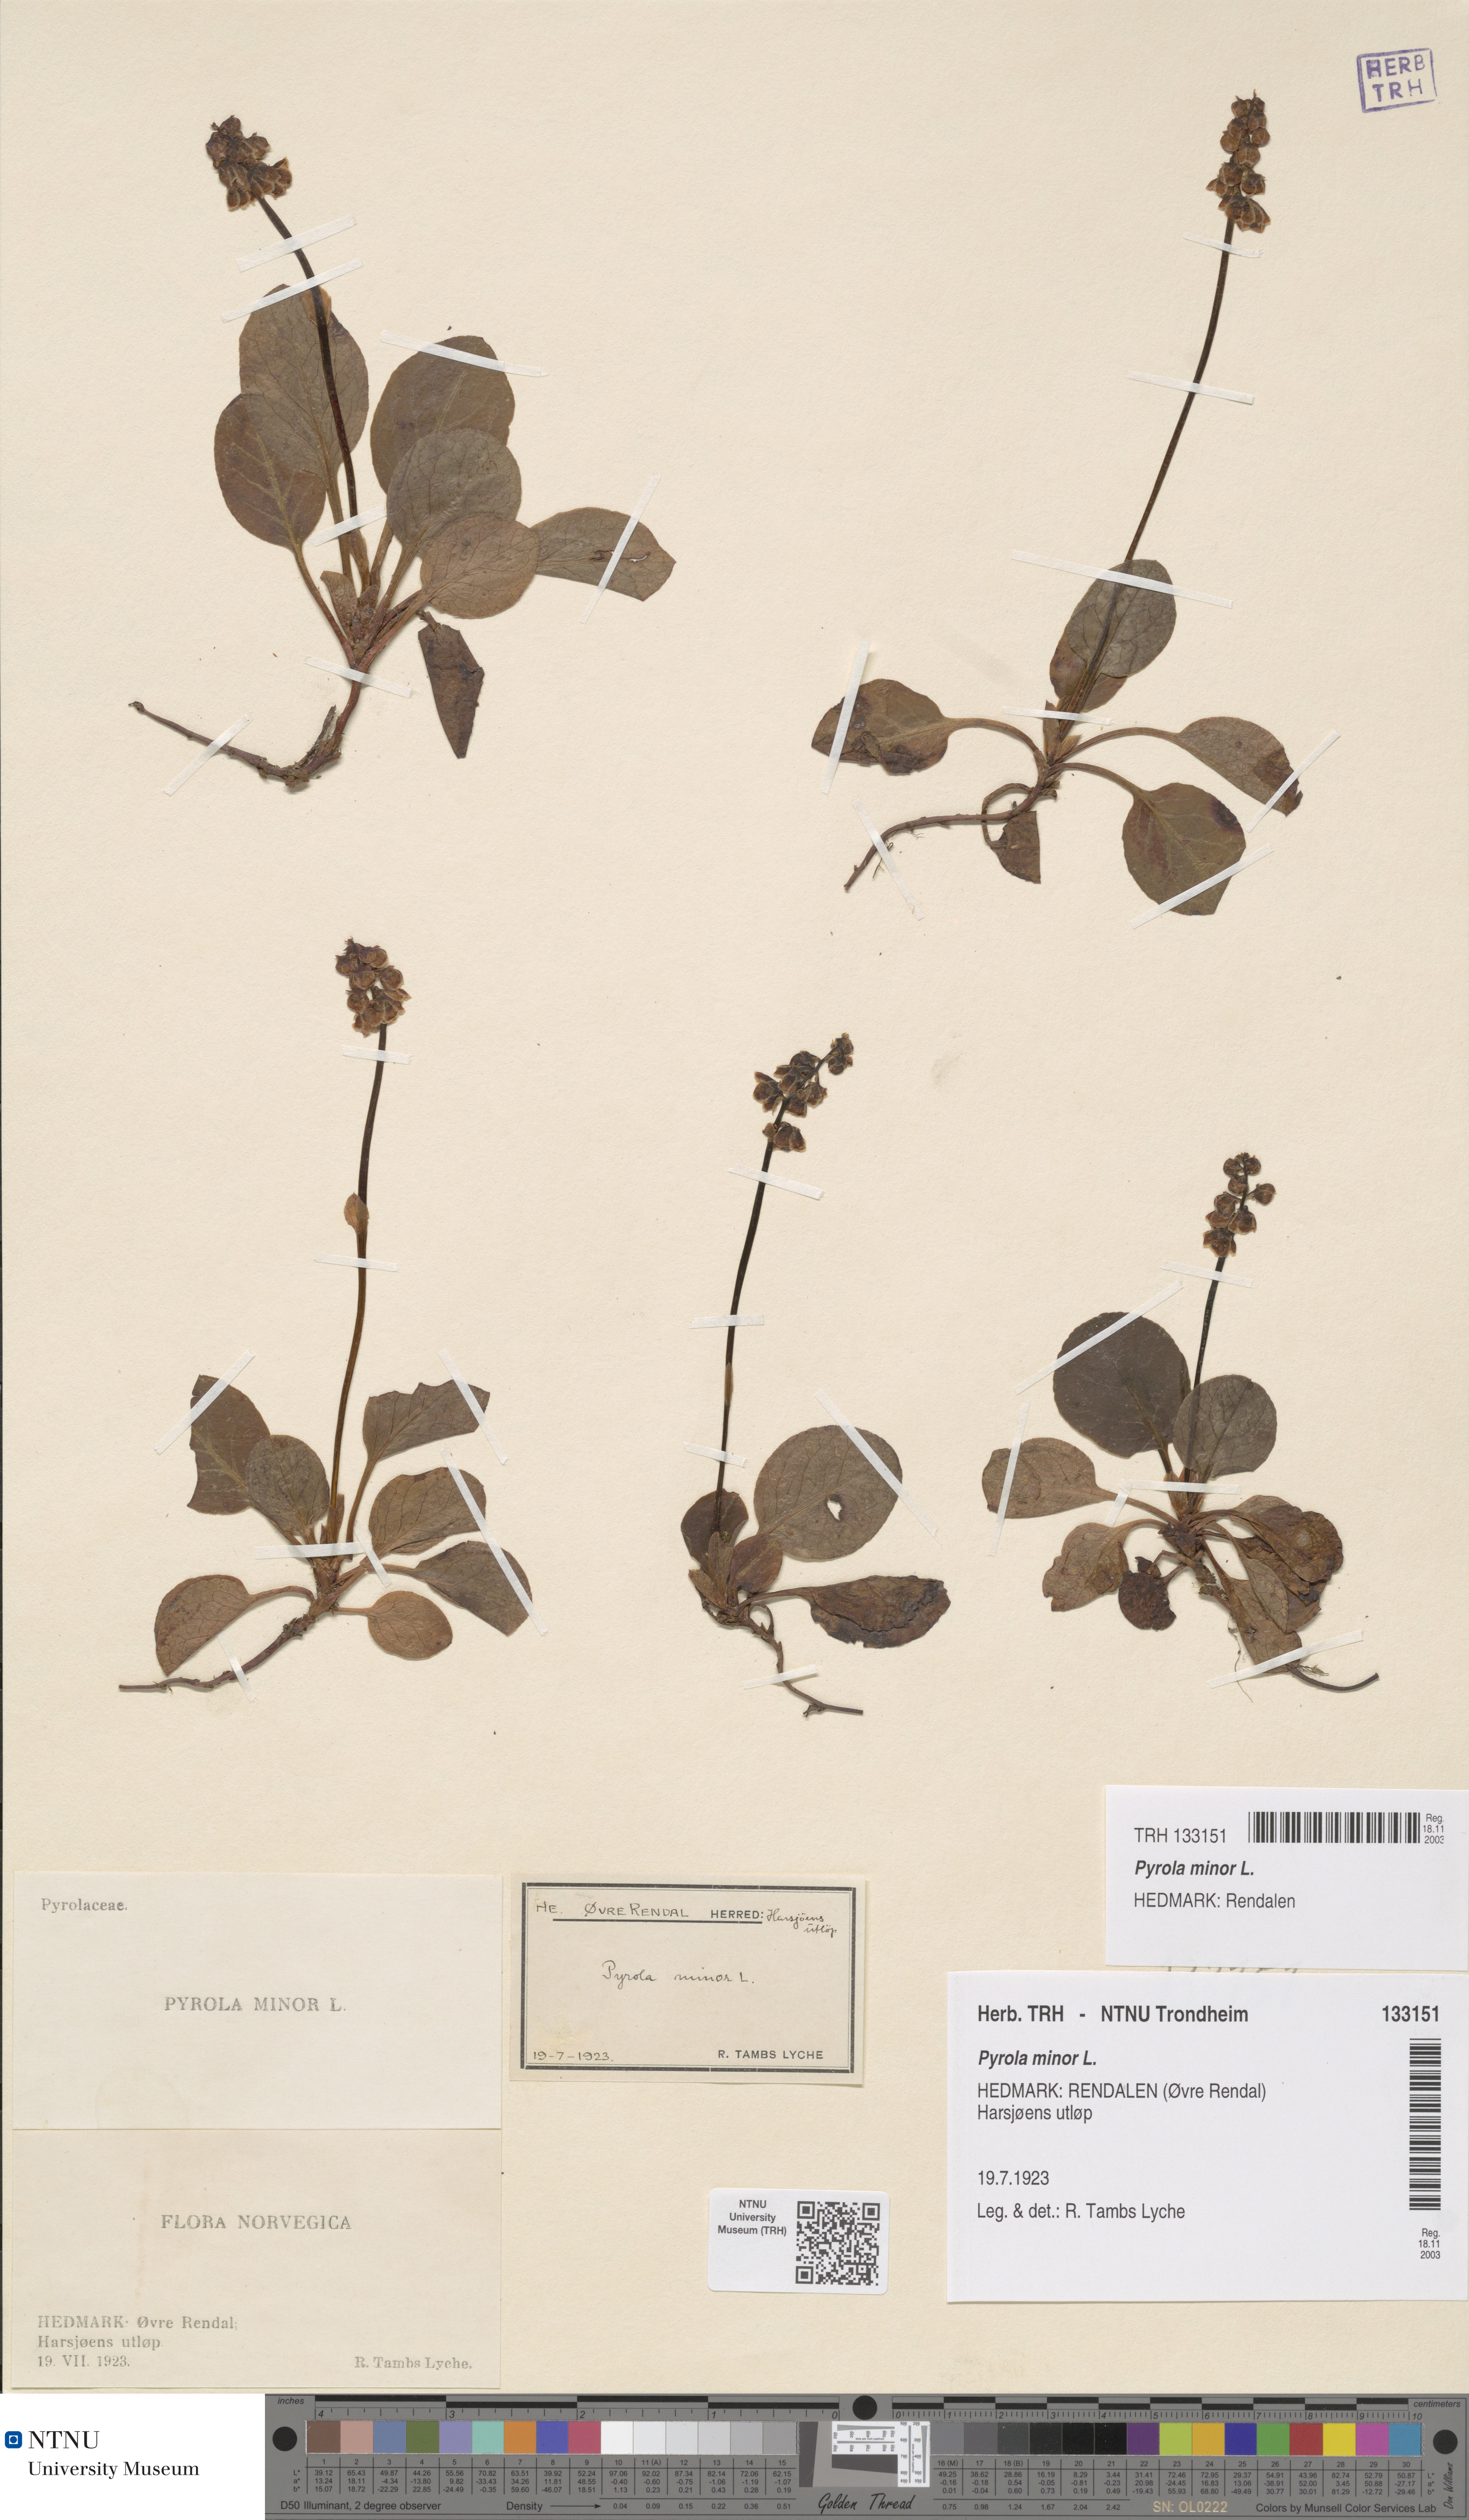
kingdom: Plantae
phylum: Tracheophyta
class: Magnoliopsida
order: Ericales
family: Ericaceae
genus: Pyrola
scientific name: Pyrola minor
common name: Common wintergreen
